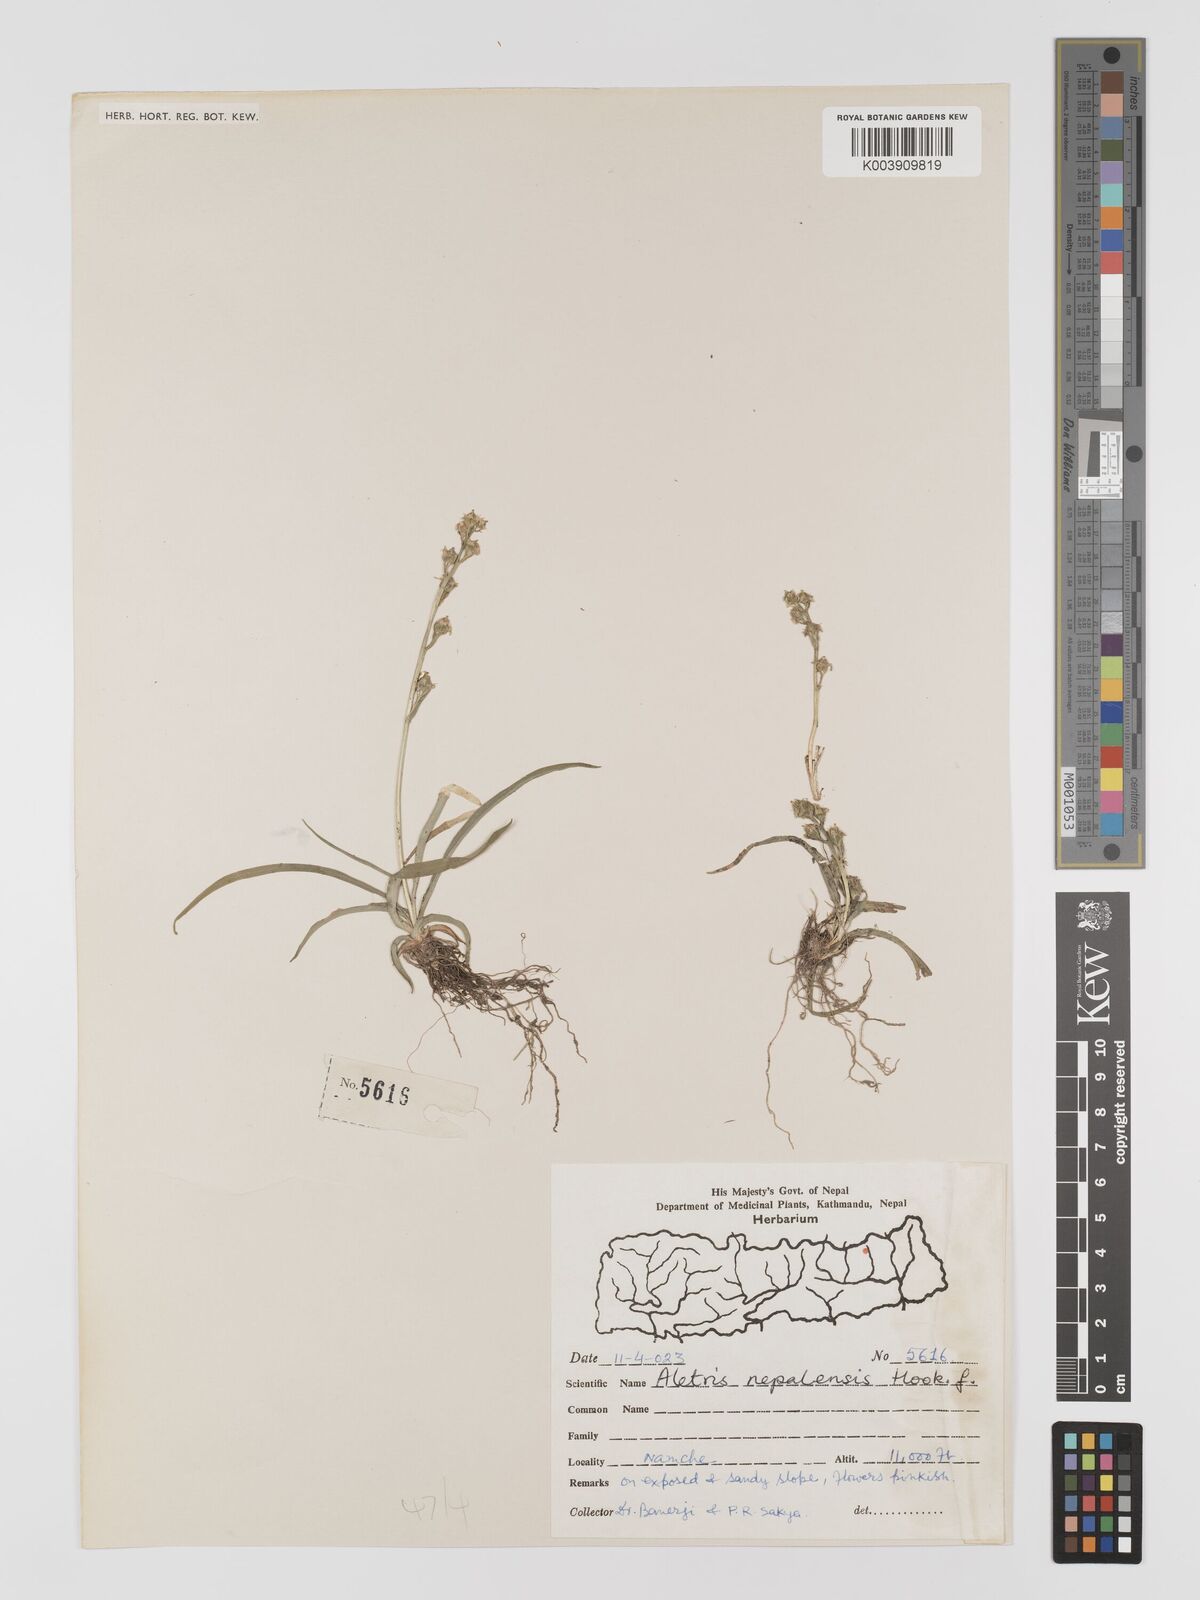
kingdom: Plantae
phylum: Tracheophyta
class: Liliopsida
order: Dioscoreales
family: Nartheciaceae
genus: Aletris
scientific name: Aletris pauciflora
